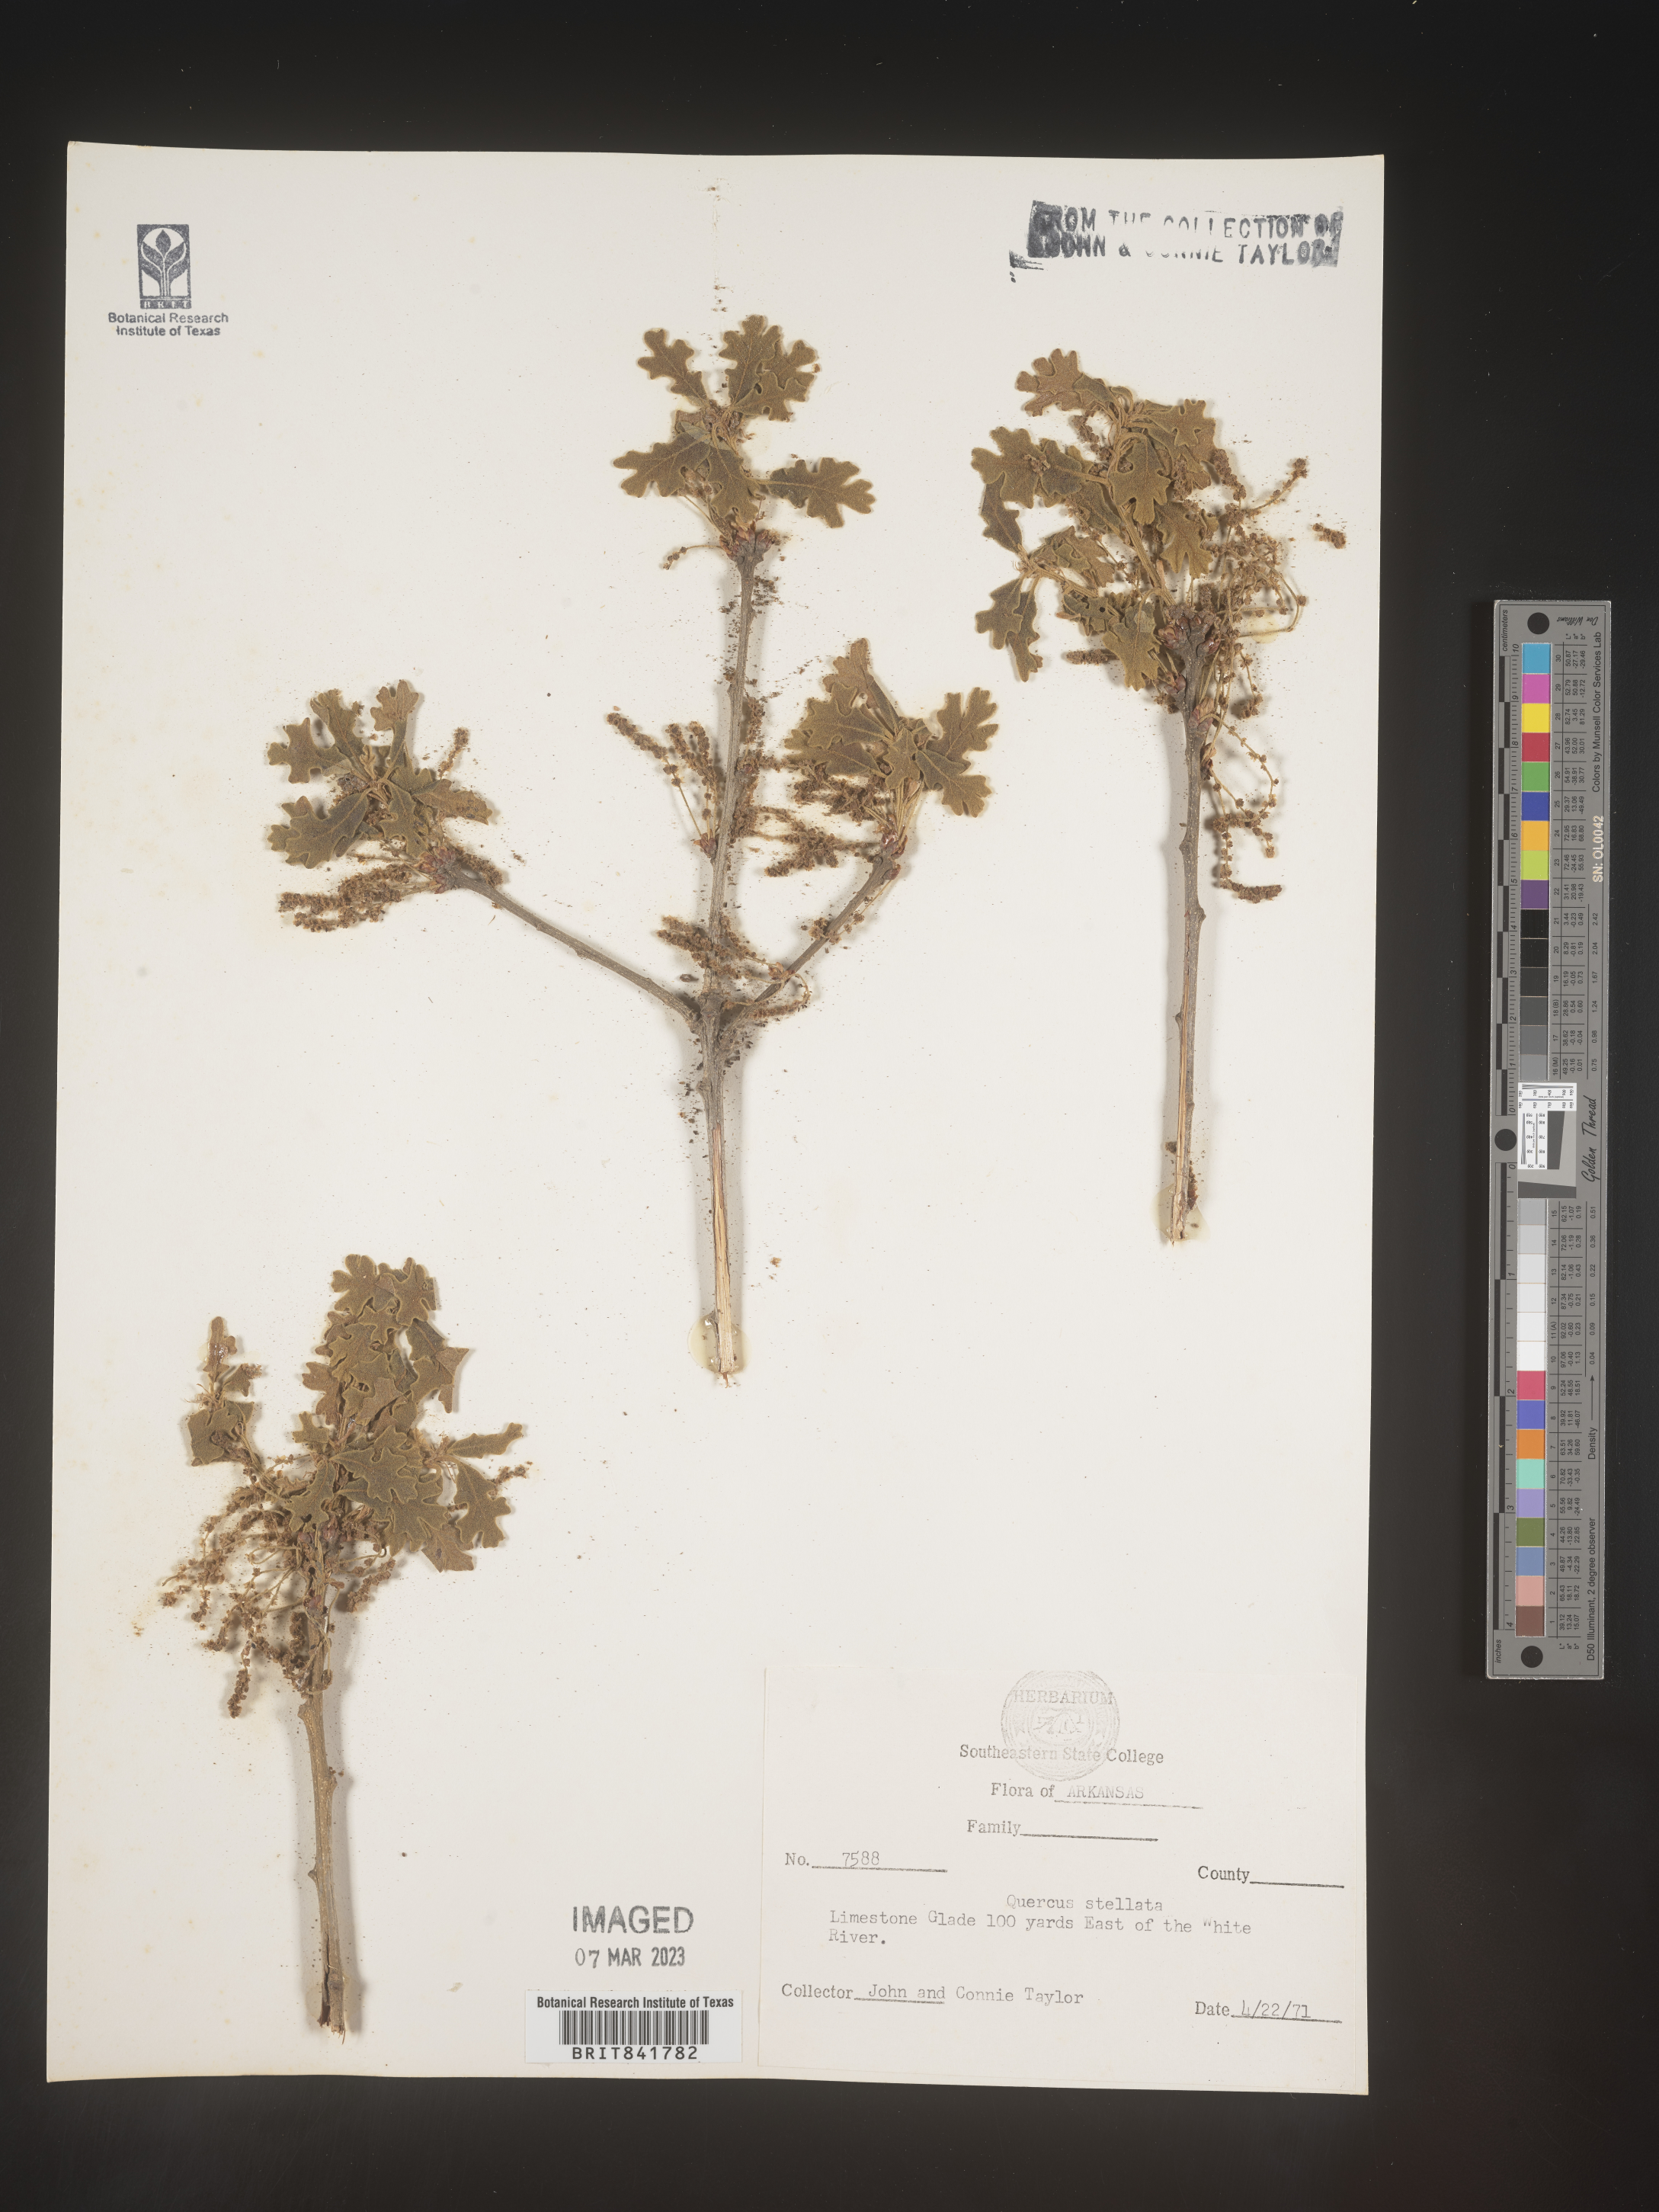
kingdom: Plantae
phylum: Tracheophyta
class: Magnoliopsida
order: Fagales
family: Fagaceae
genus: Quercus
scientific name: Quercus stellata
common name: Post oak
